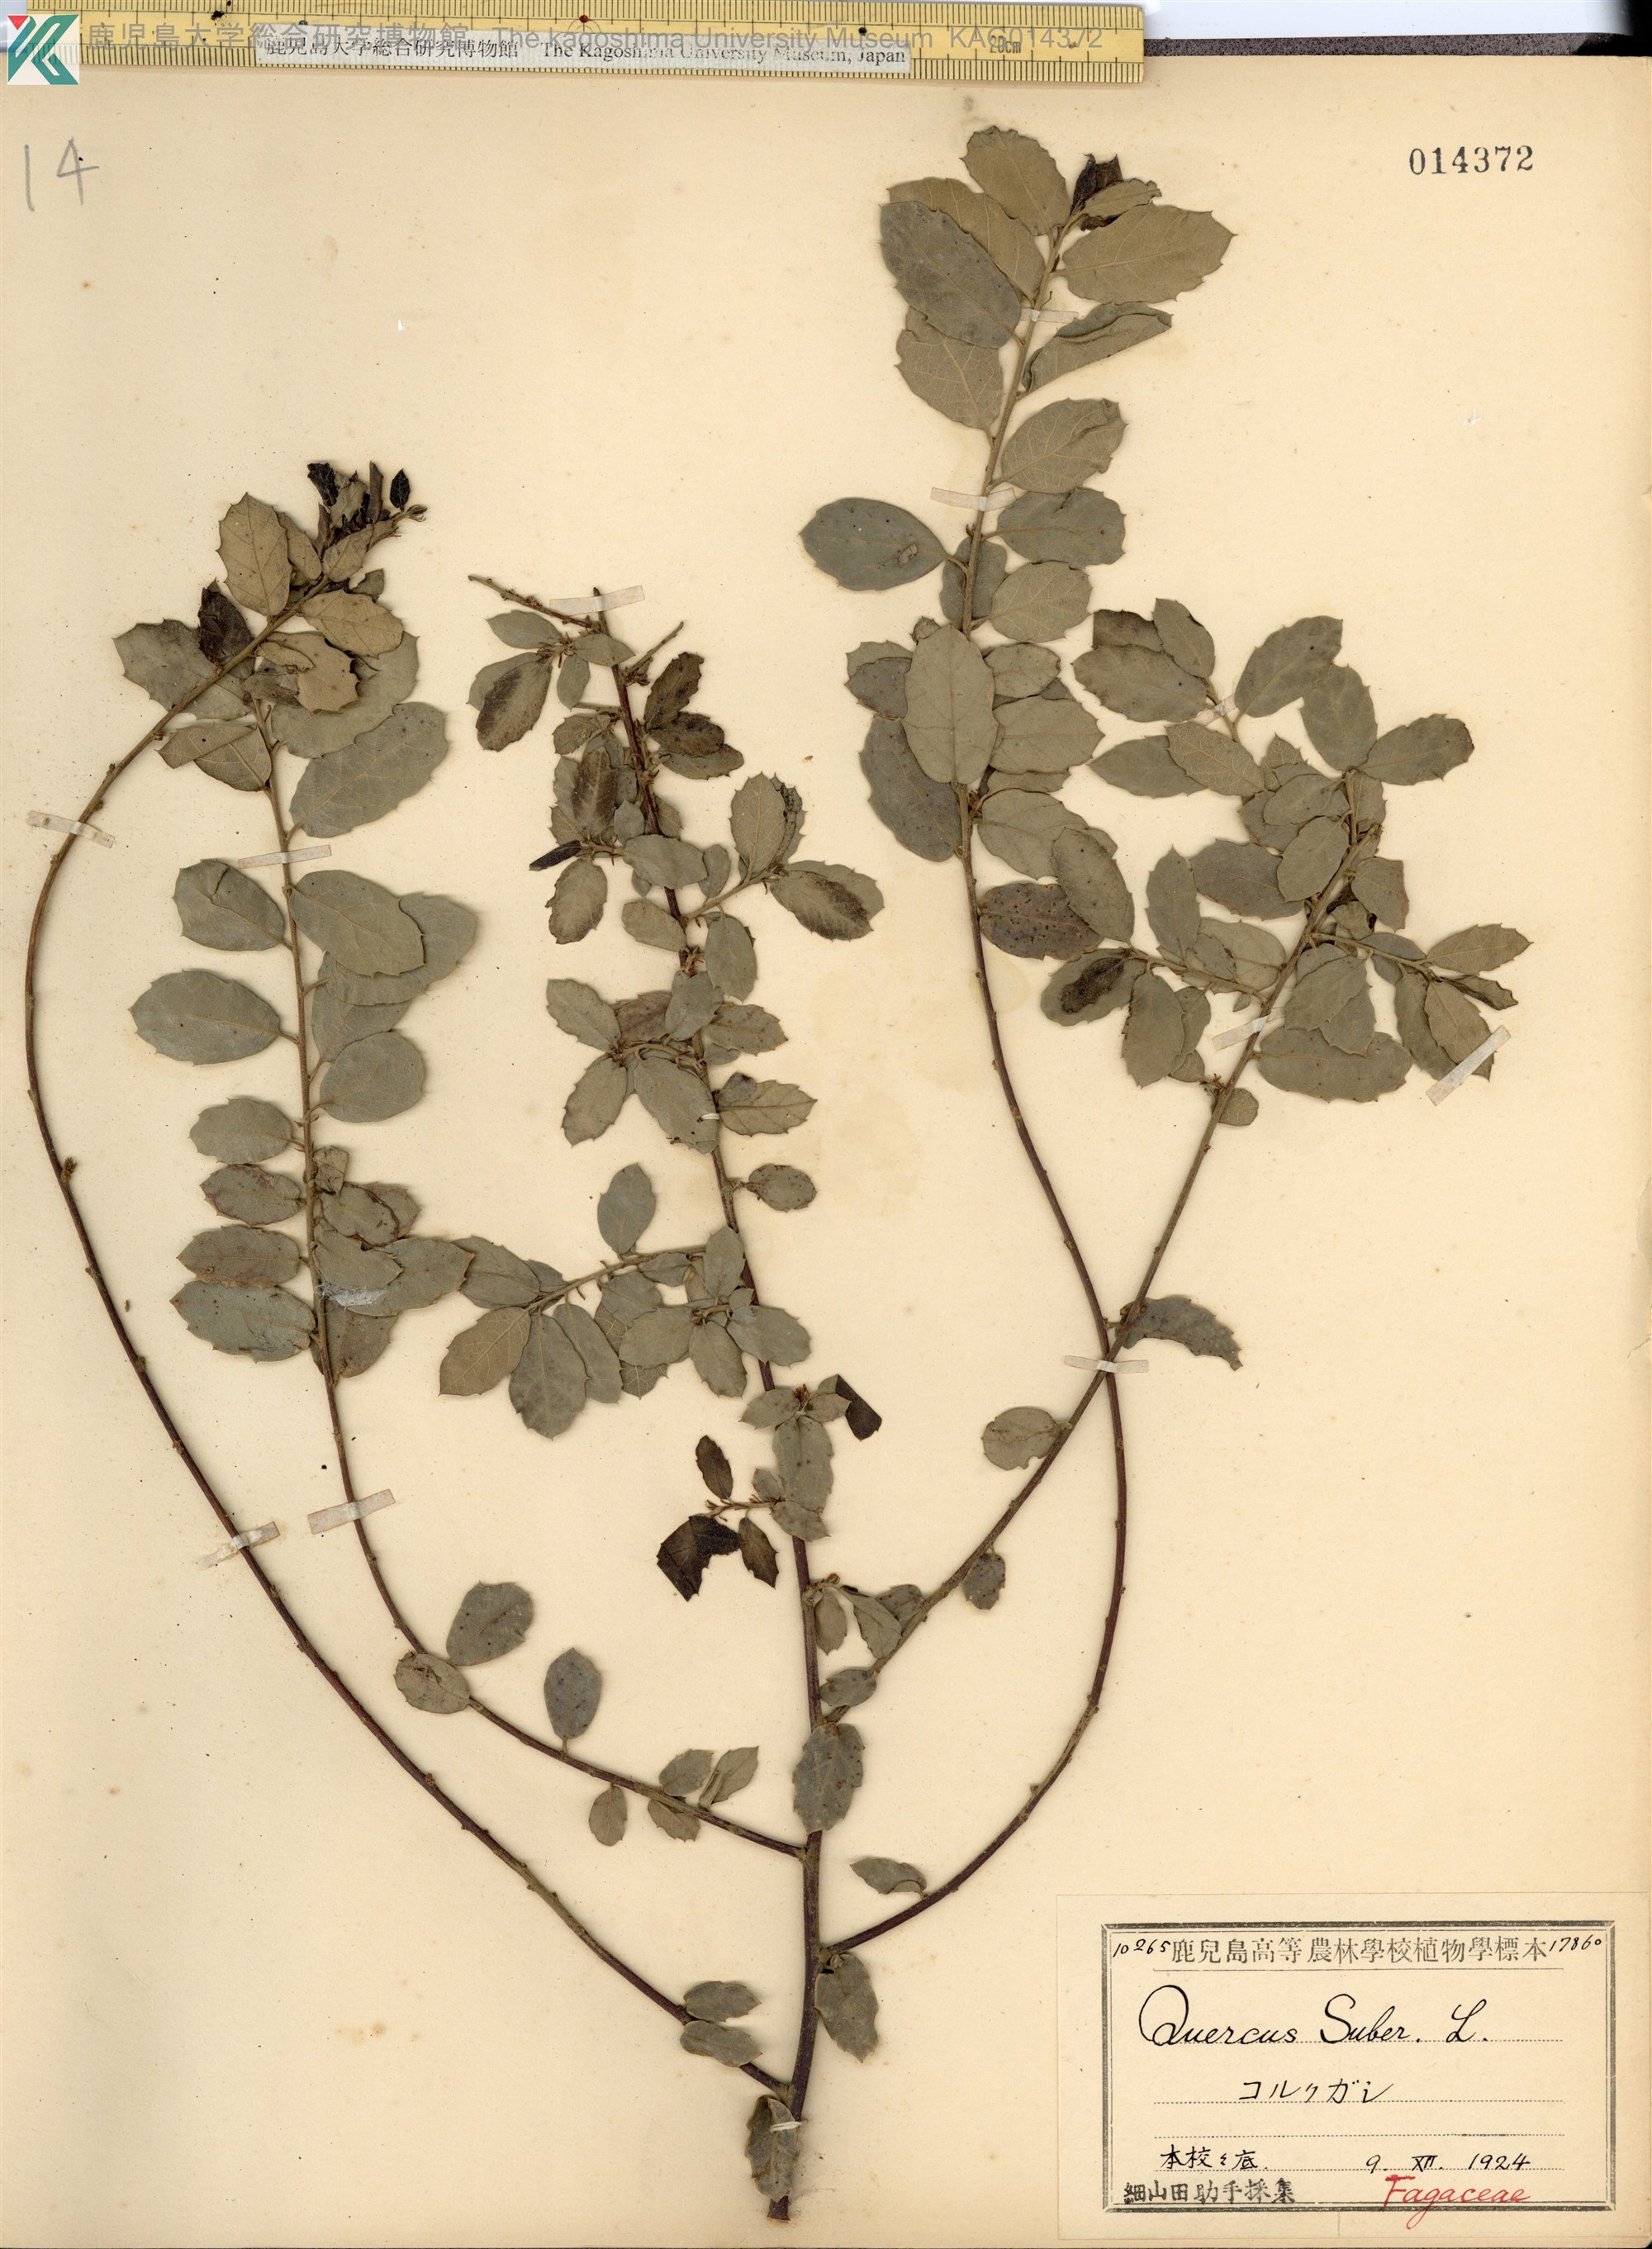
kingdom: Plantae
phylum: Tracheophyta
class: Magnoliopsida
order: Fagales
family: Fagaceae
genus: Quercus
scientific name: Quercus suber
